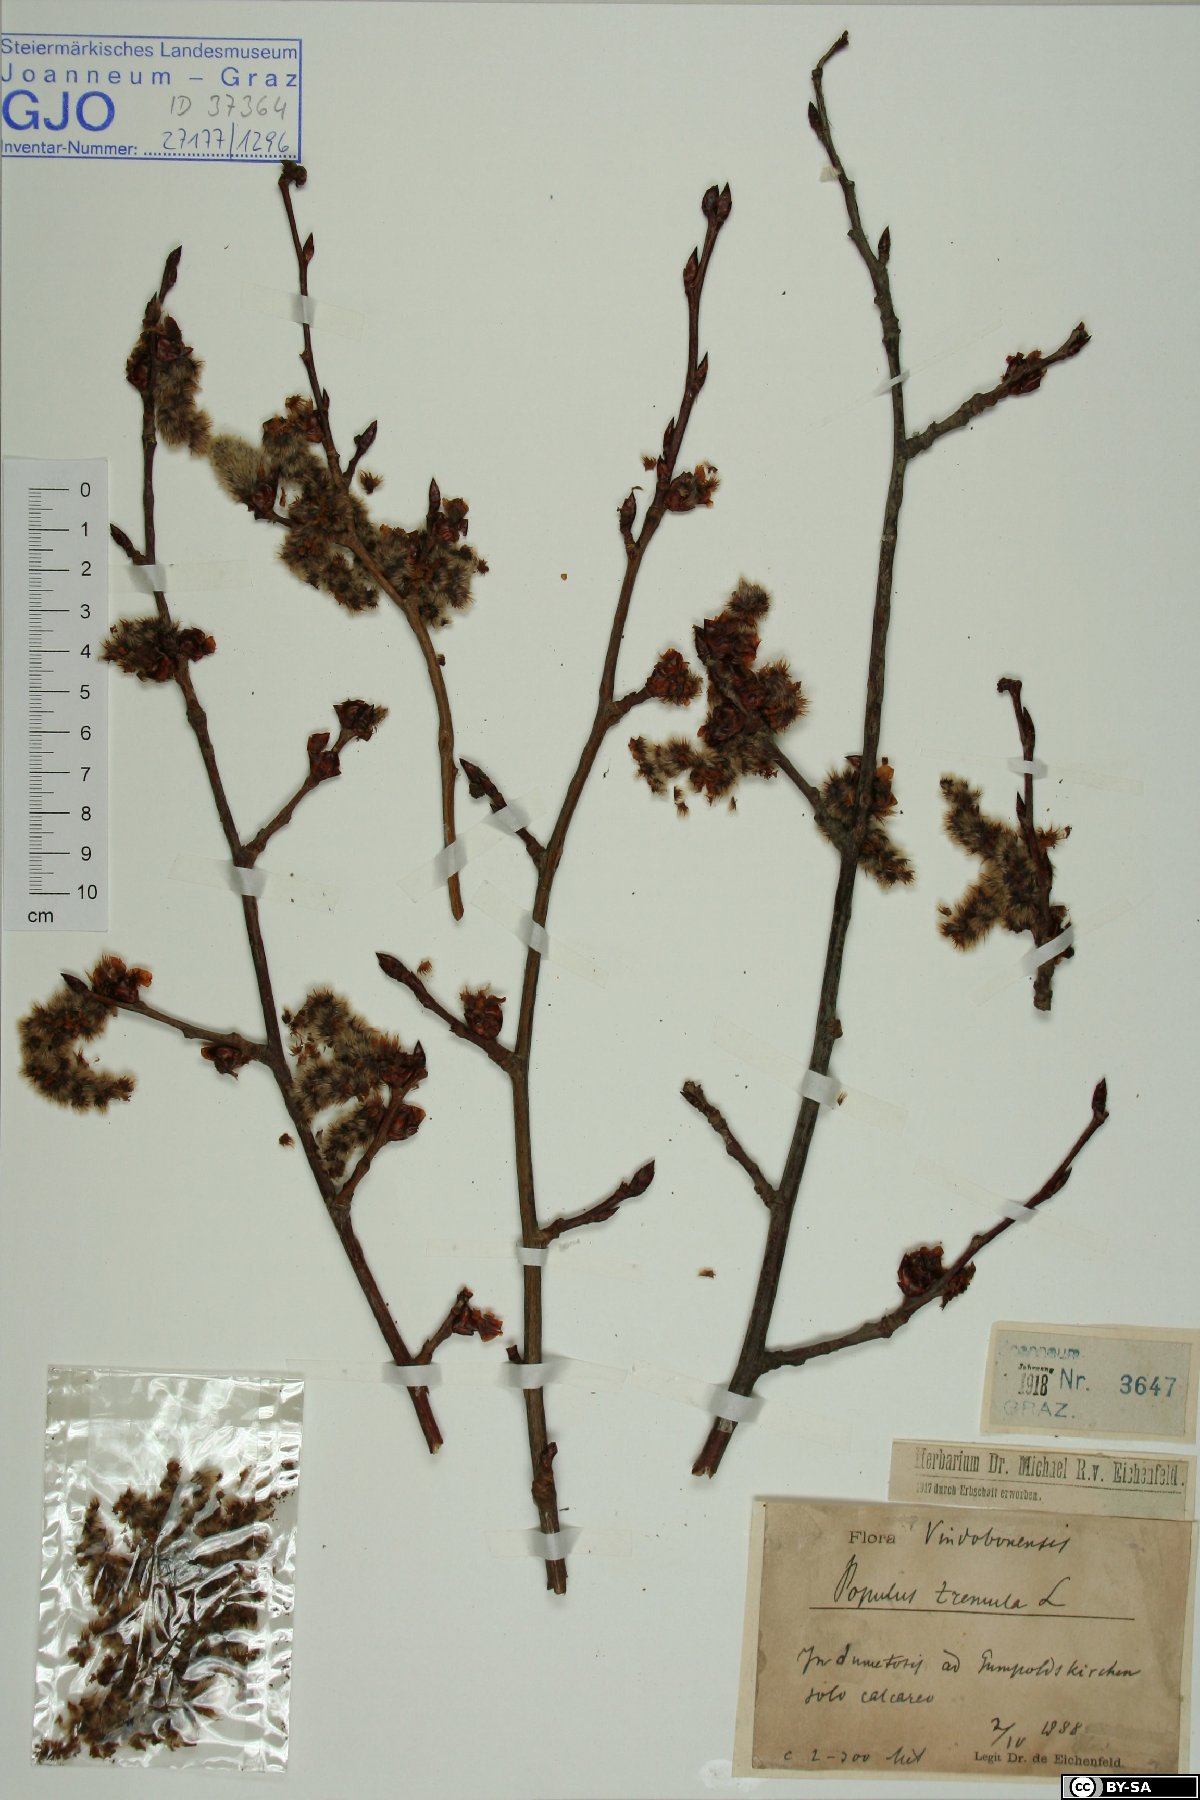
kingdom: Plantae
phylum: Tracheophyta
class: Magnoliopsida
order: Malpighiales
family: Salicaceae
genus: Populus
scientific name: Populus tremula
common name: European aspen
